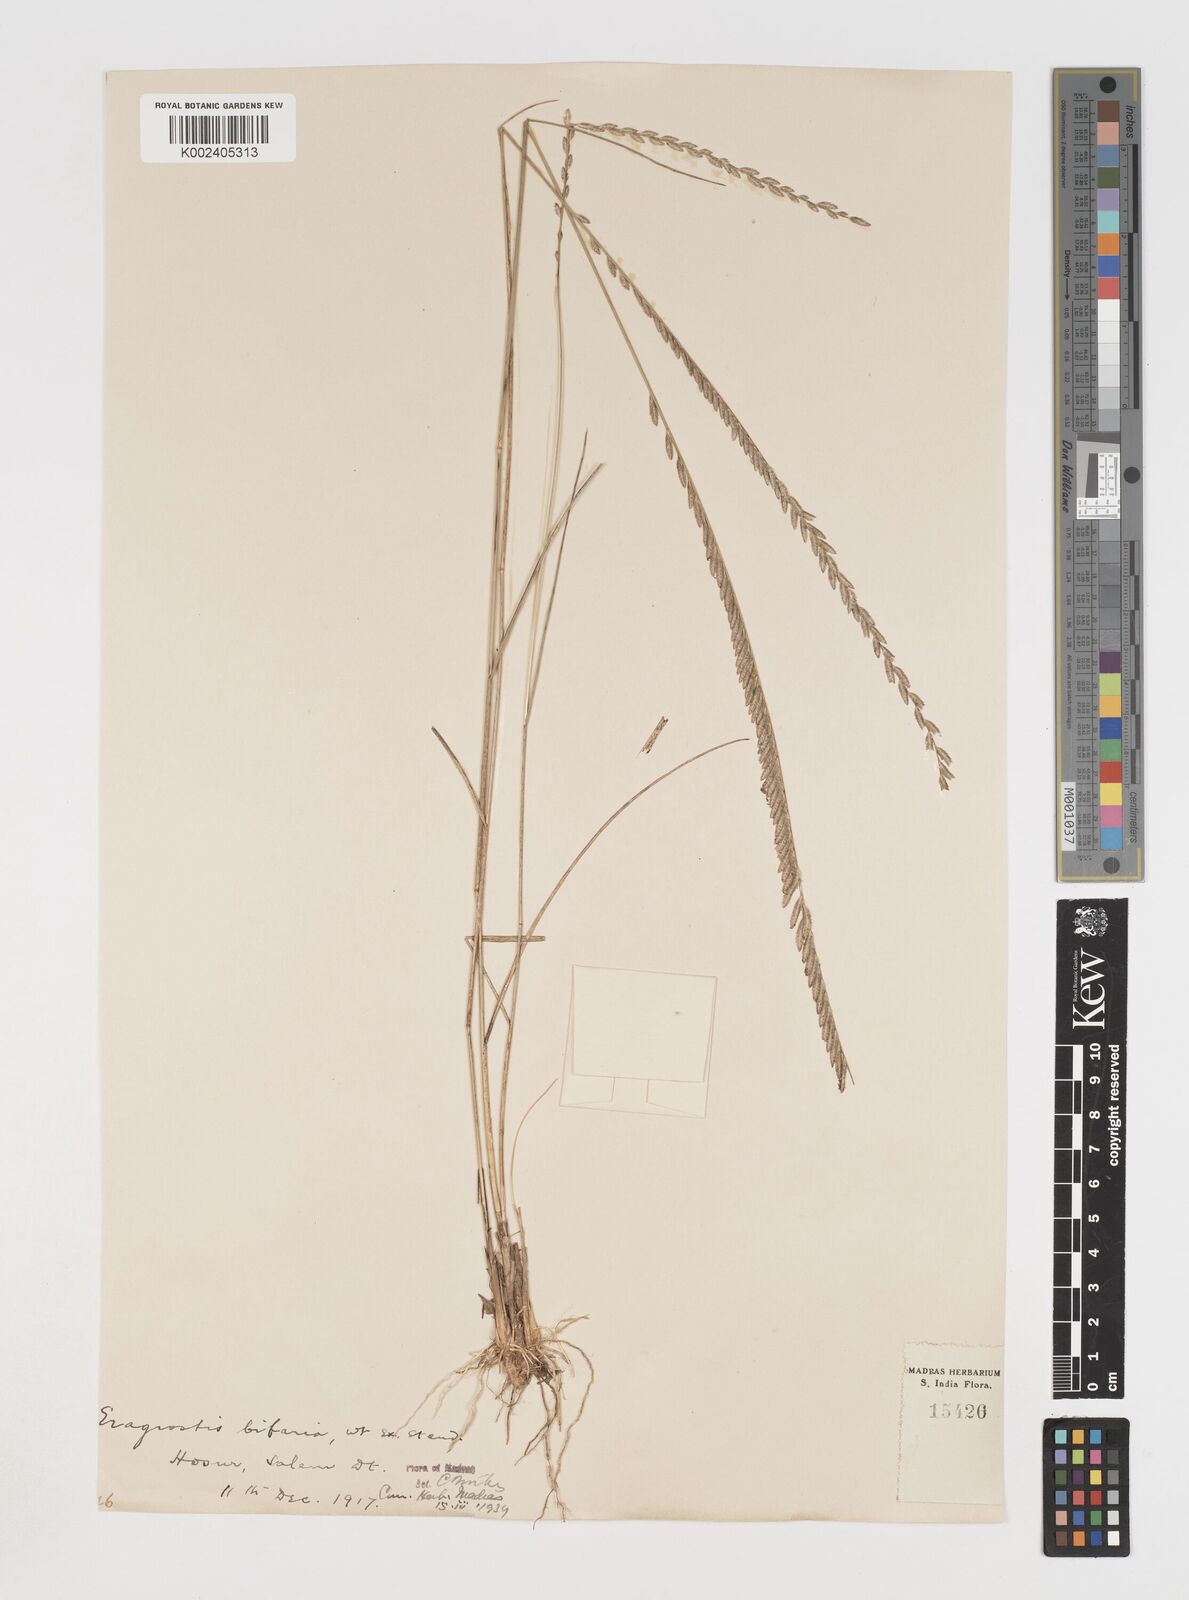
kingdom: Plantae
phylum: Tracheophyta
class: Liliopsida
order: Poales
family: Poaceae
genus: Eragrostiella
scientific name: Eragrostiella bifaria
